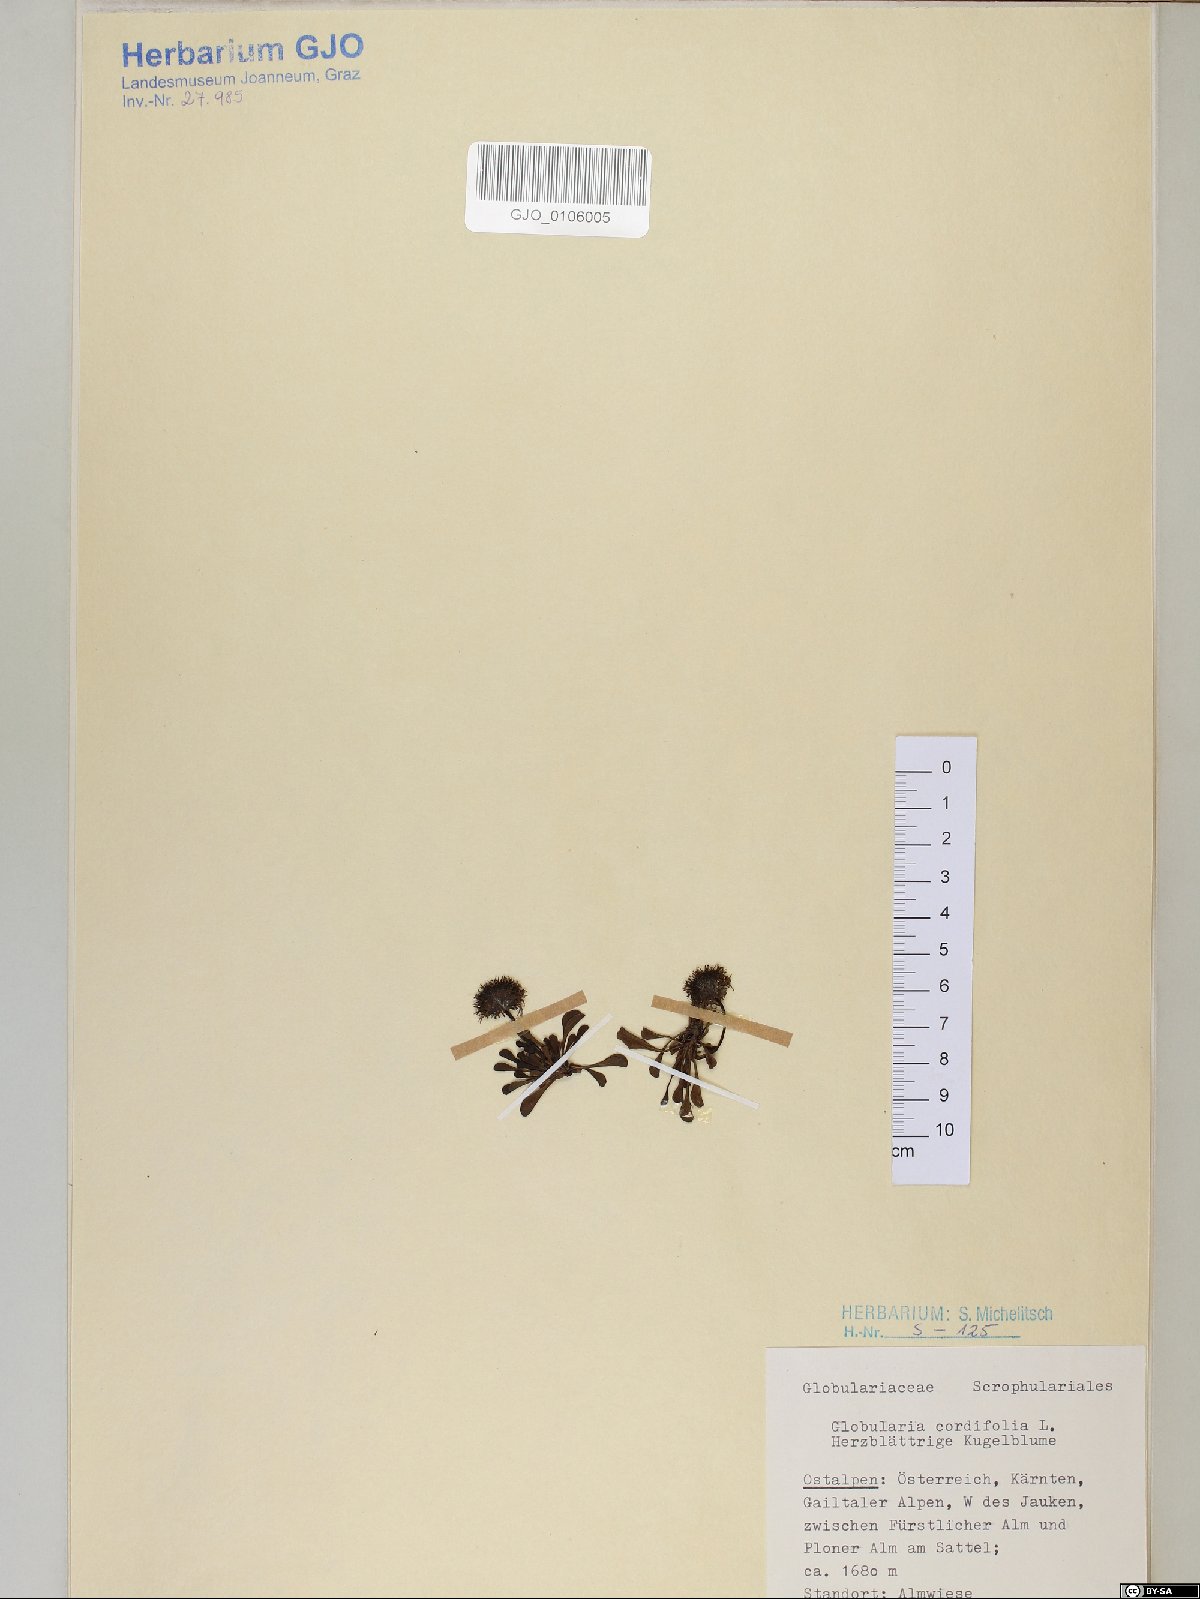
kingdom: Plantae
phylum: Tracheophyta
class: Magnoliopsida
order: Lamiales
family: Plantaginaceae
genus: Globularia
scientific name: Globularia cordifolia
